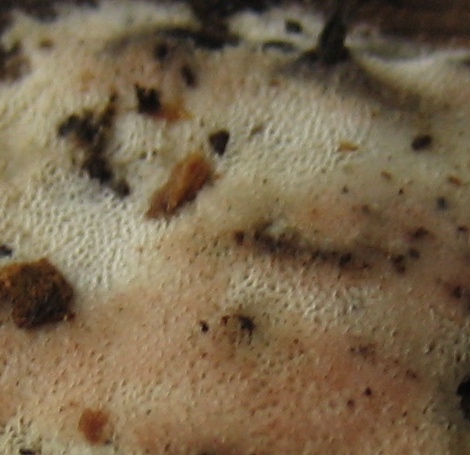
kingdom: Fungi
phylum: Basidiomycota
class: Agaricomycetes
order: Polyporales
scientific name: Polyporales
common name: poresvampordenen
